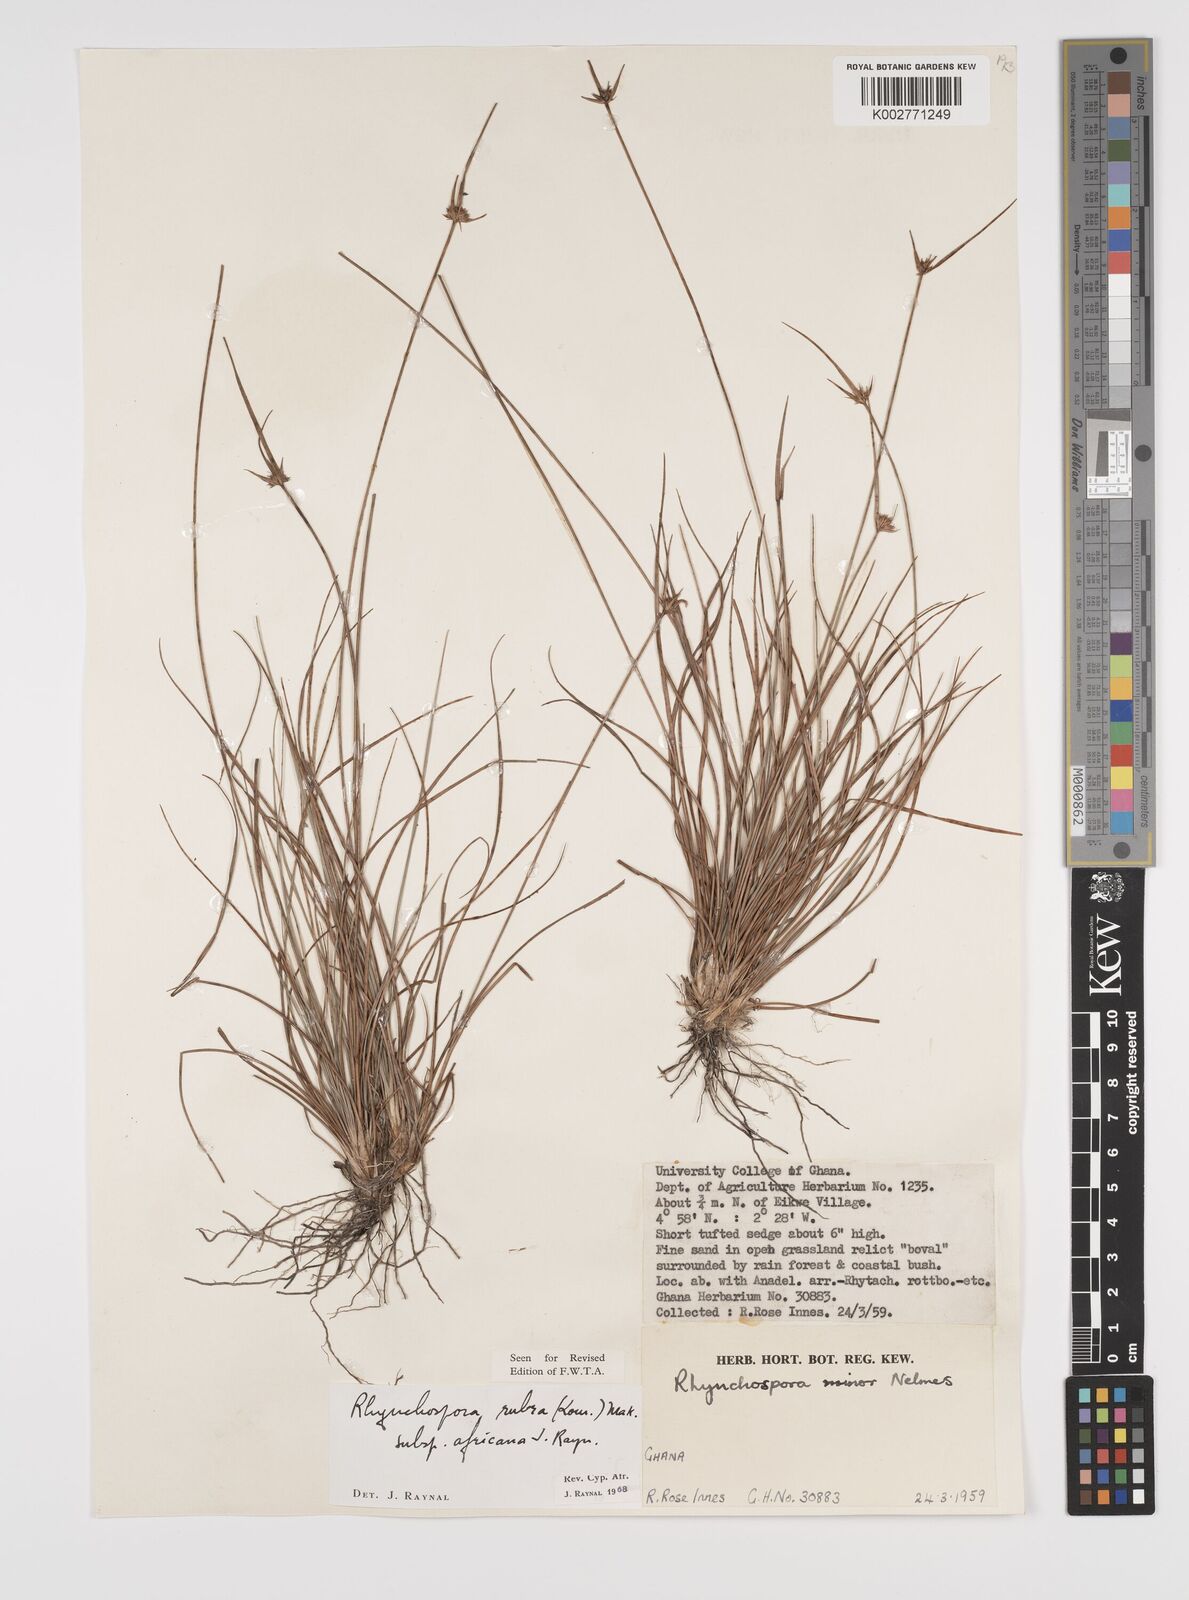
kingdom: Plantae
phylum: Tracheophyta
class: Liliopsida
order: Poales
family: Cyperaceae
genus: Rhynchospora
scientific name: Rhynchospora rubra
